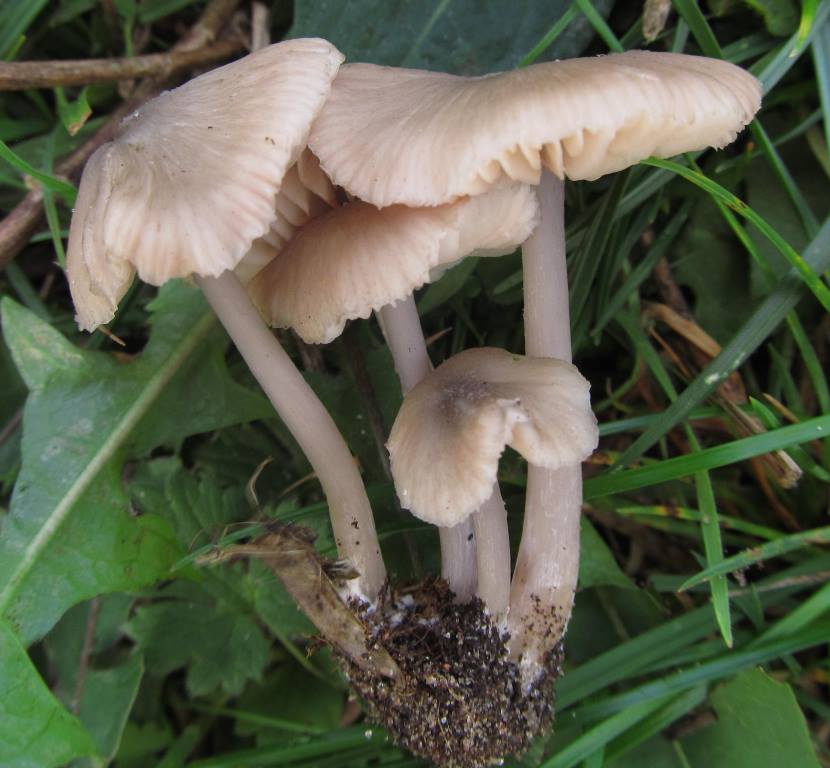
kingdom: Fungi
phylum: Basidiomycota
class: Agaricomycetes
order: Agaricales
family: Entolomataceae
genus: Entoloma
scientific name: Entoloma mediterraneense
